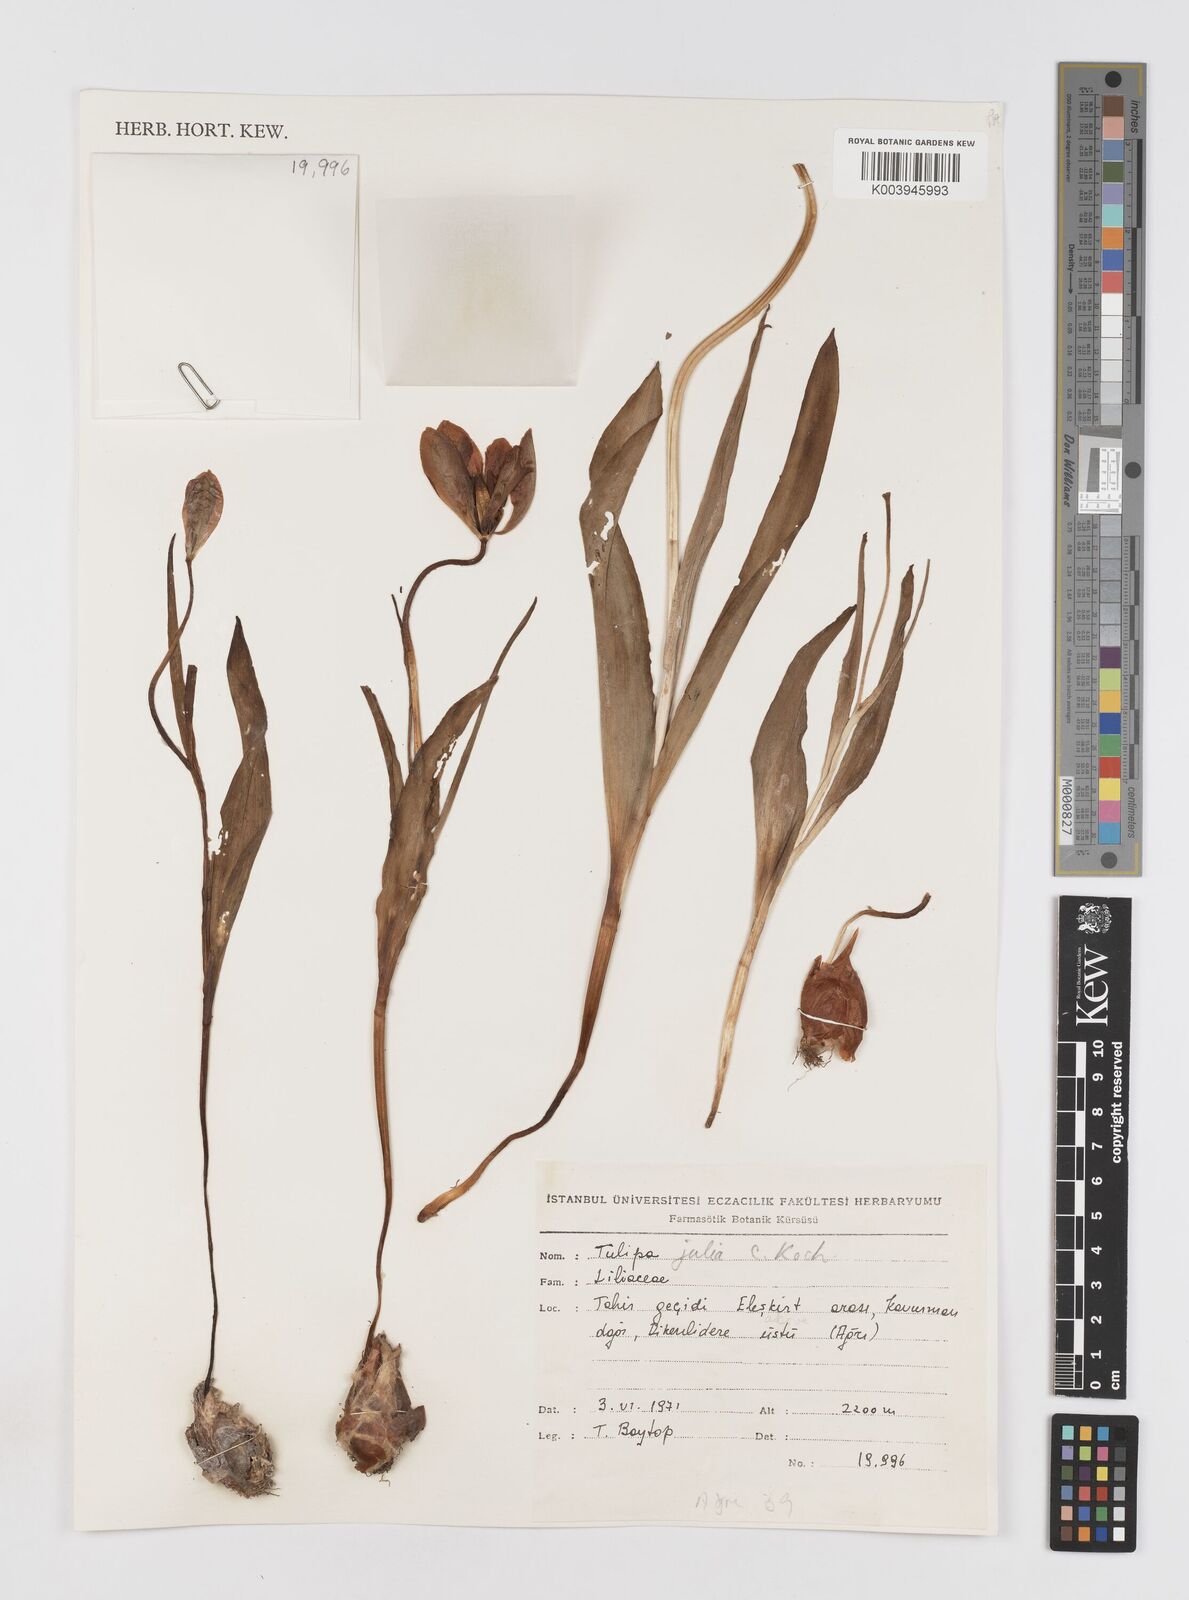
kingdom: Plantae
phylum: Tracheophyta
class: Liliopsida
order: Liliales
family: Liliaceae
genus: Tulipa
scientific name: Tulipa julia
